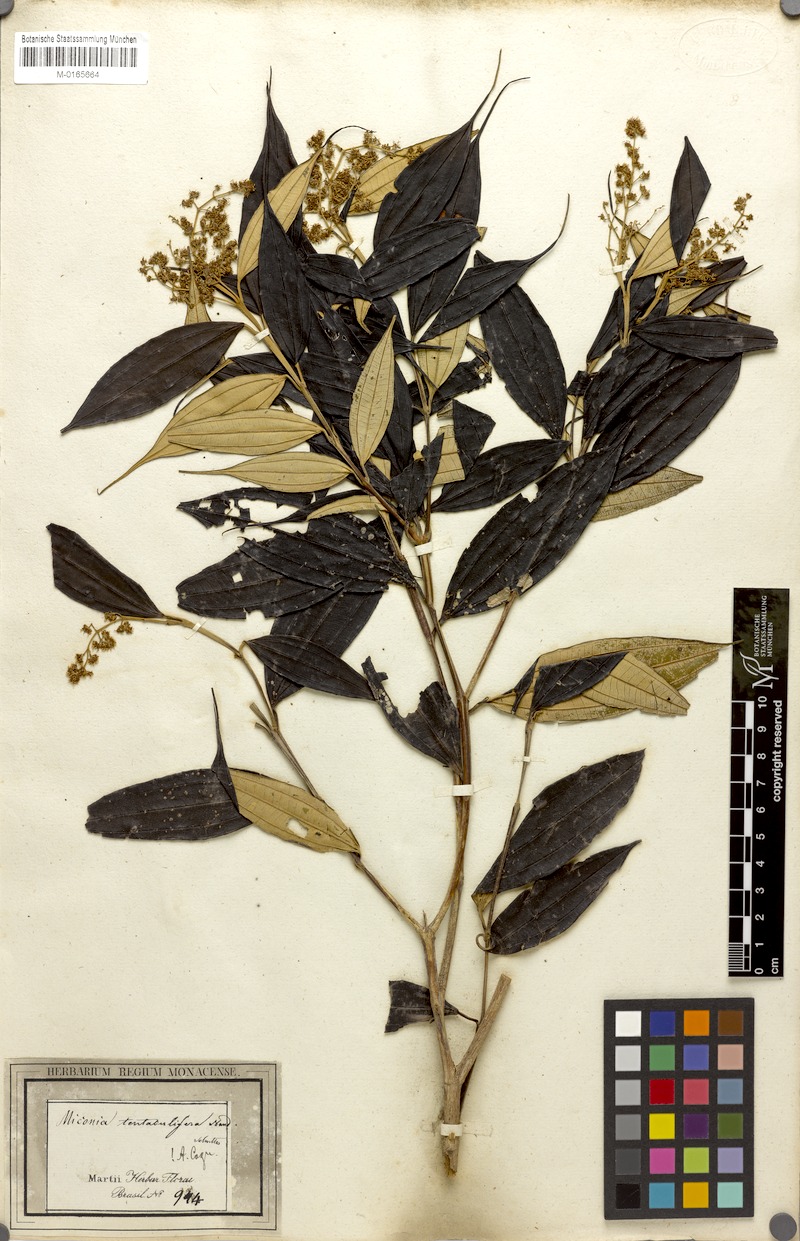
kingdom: Plantae
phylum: Tracheophyta
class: Magnoliopsida
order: Myrtales
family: Melastomataceae
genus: Miconia
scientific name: Miconia tentaculifera
